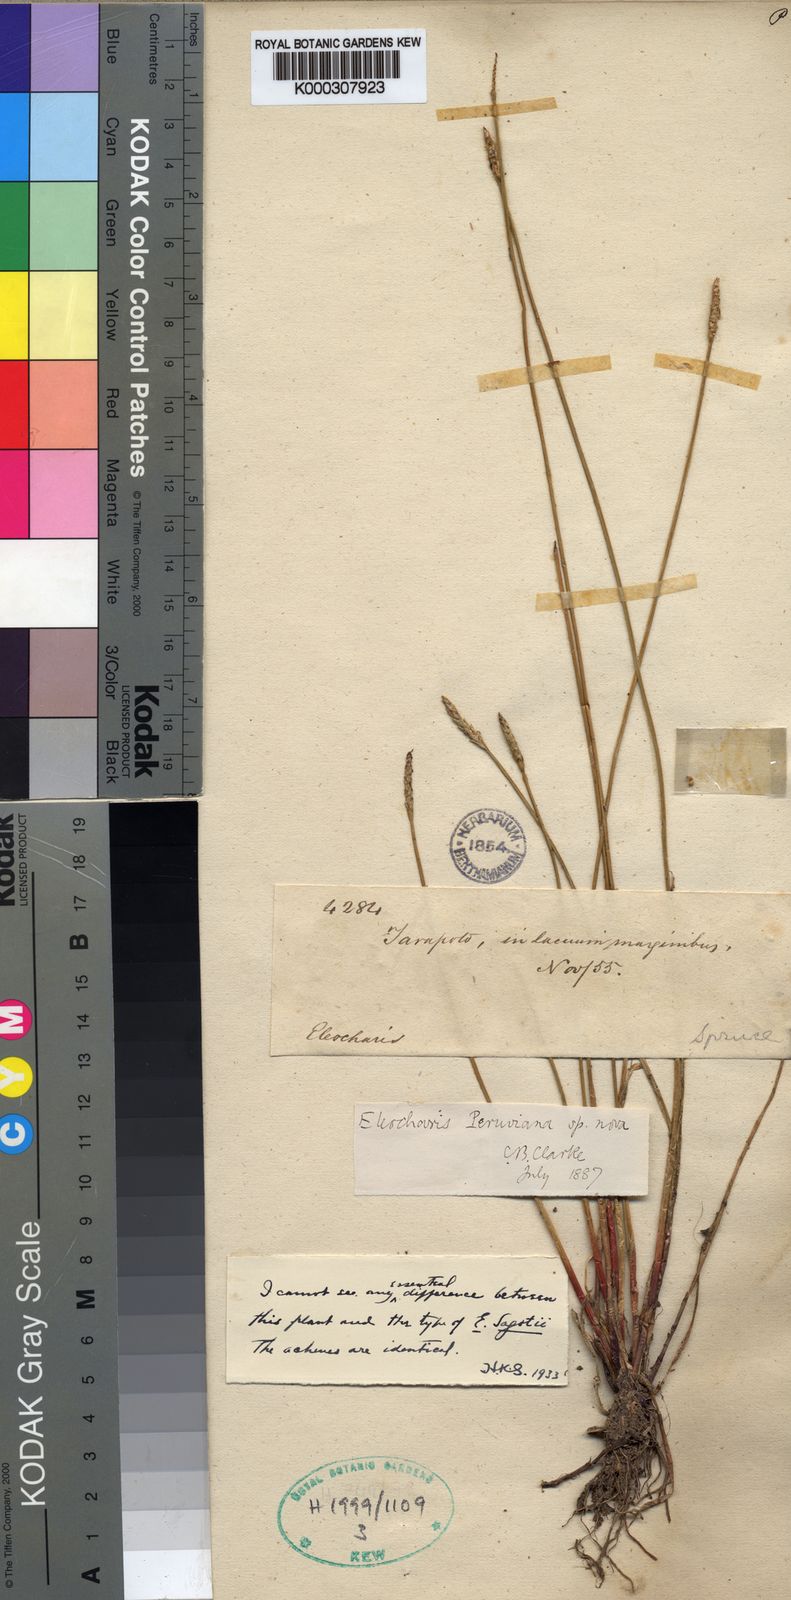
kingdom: Plantae
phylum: Tracheophyta
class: Liliopsida
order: Poales
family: Cyperaceae
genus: Eleocharis
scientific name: Eleocharis
